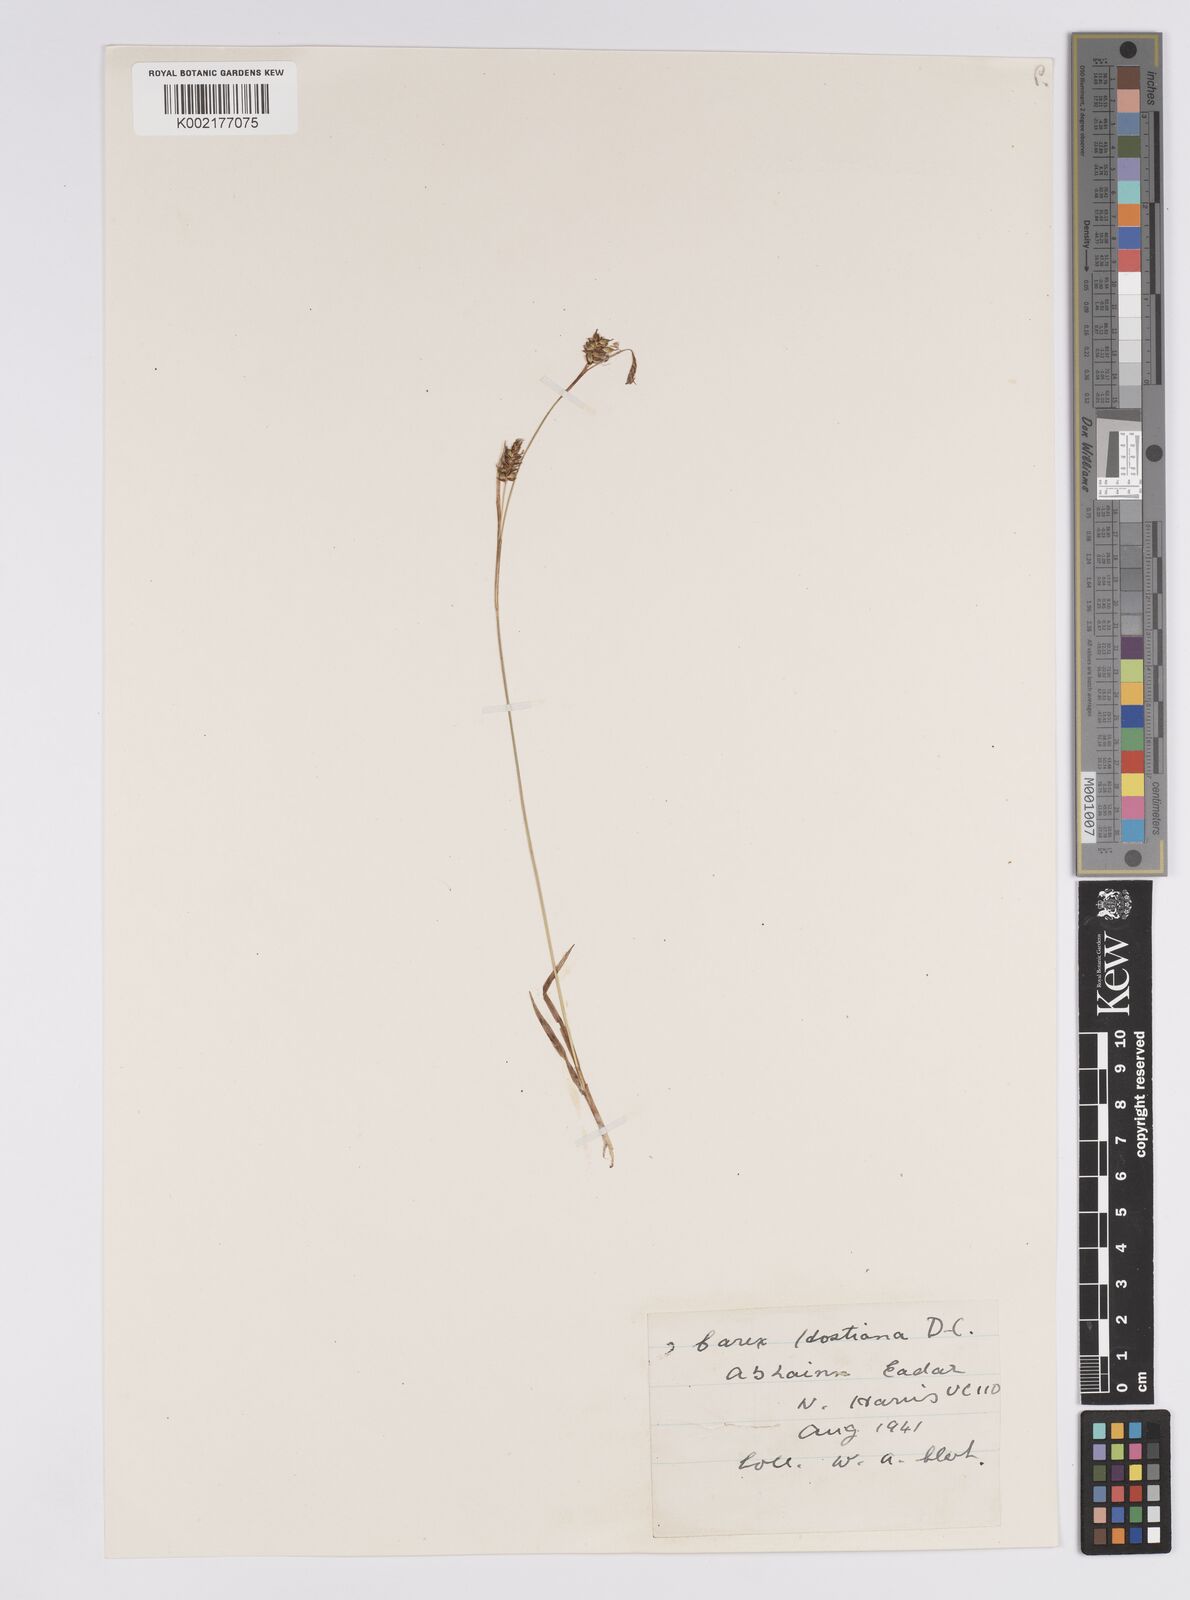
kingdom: Plantae
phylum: Tracheophyta
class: Liliopsida
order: Poales
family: Cyperaceae
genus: Carex
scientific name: Carex hostiana
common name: Tawny sedge
